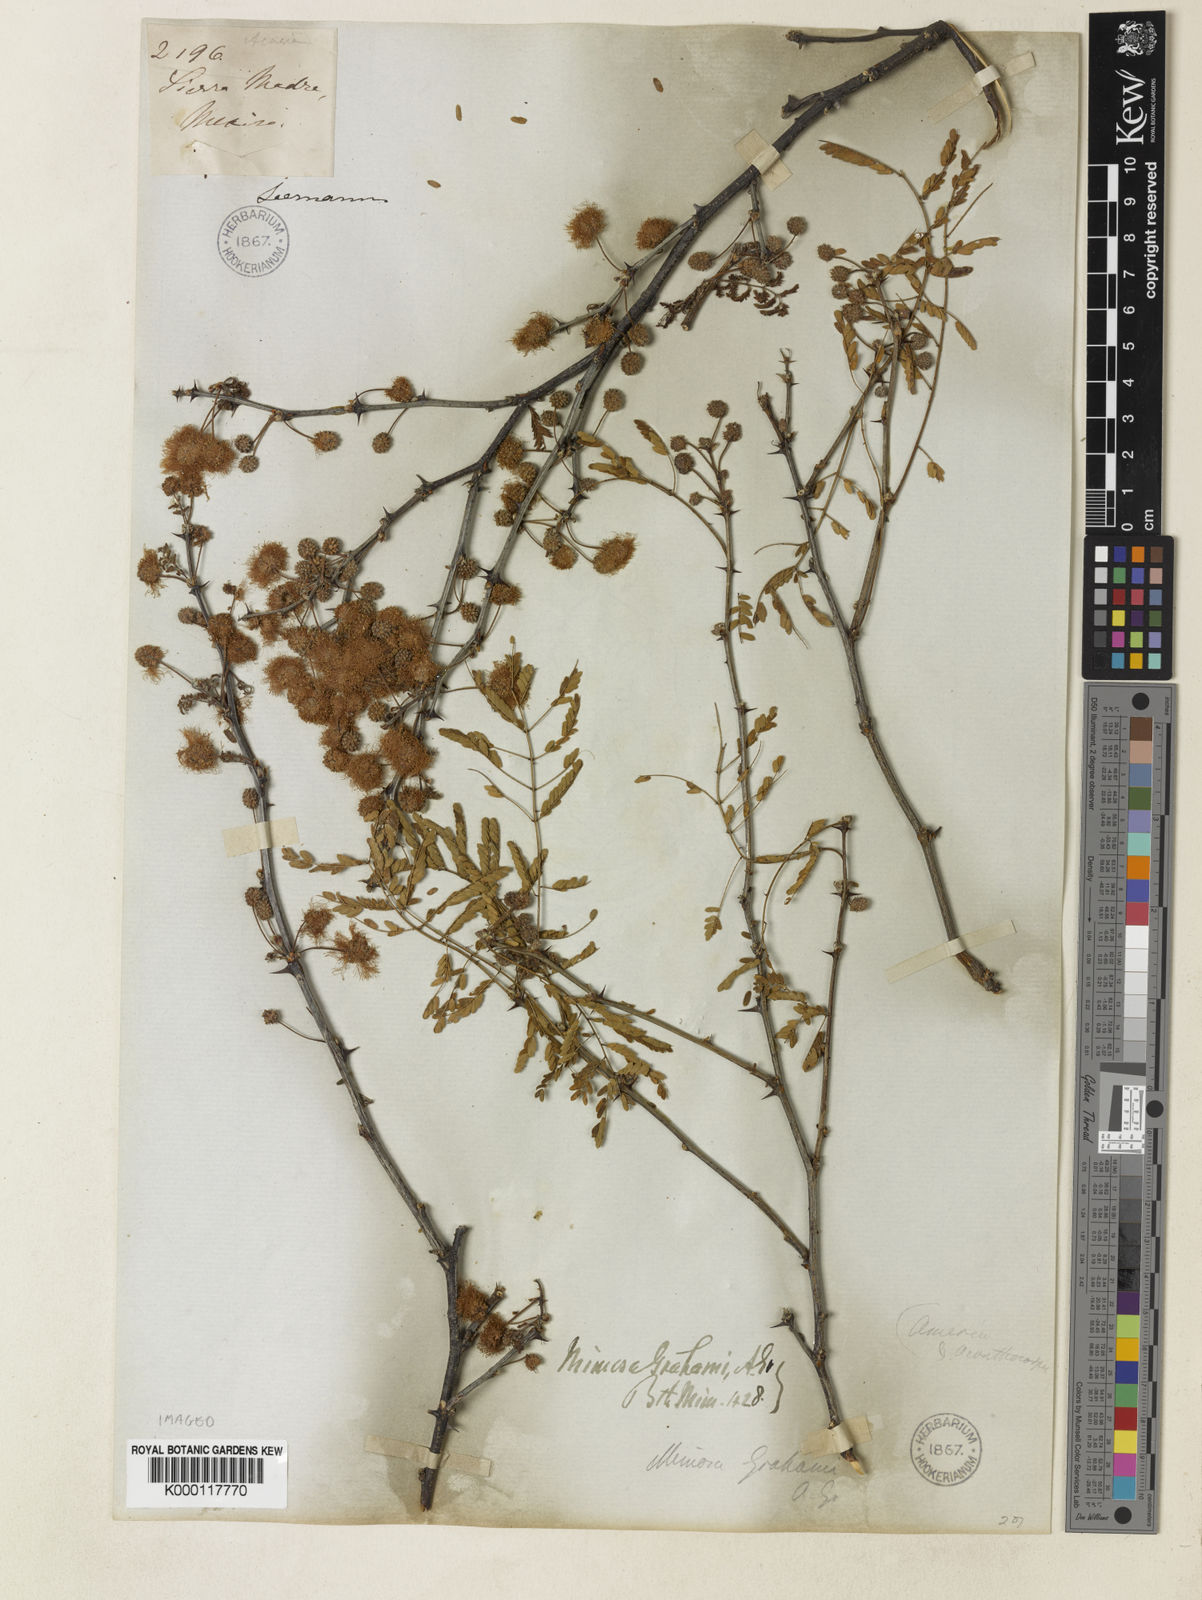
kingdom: Plantae
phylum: Tracheophyta
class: Magnoliopsida
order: Fabales
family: Fabaceae
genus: Mimosa
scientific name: Mimosa grahamii
